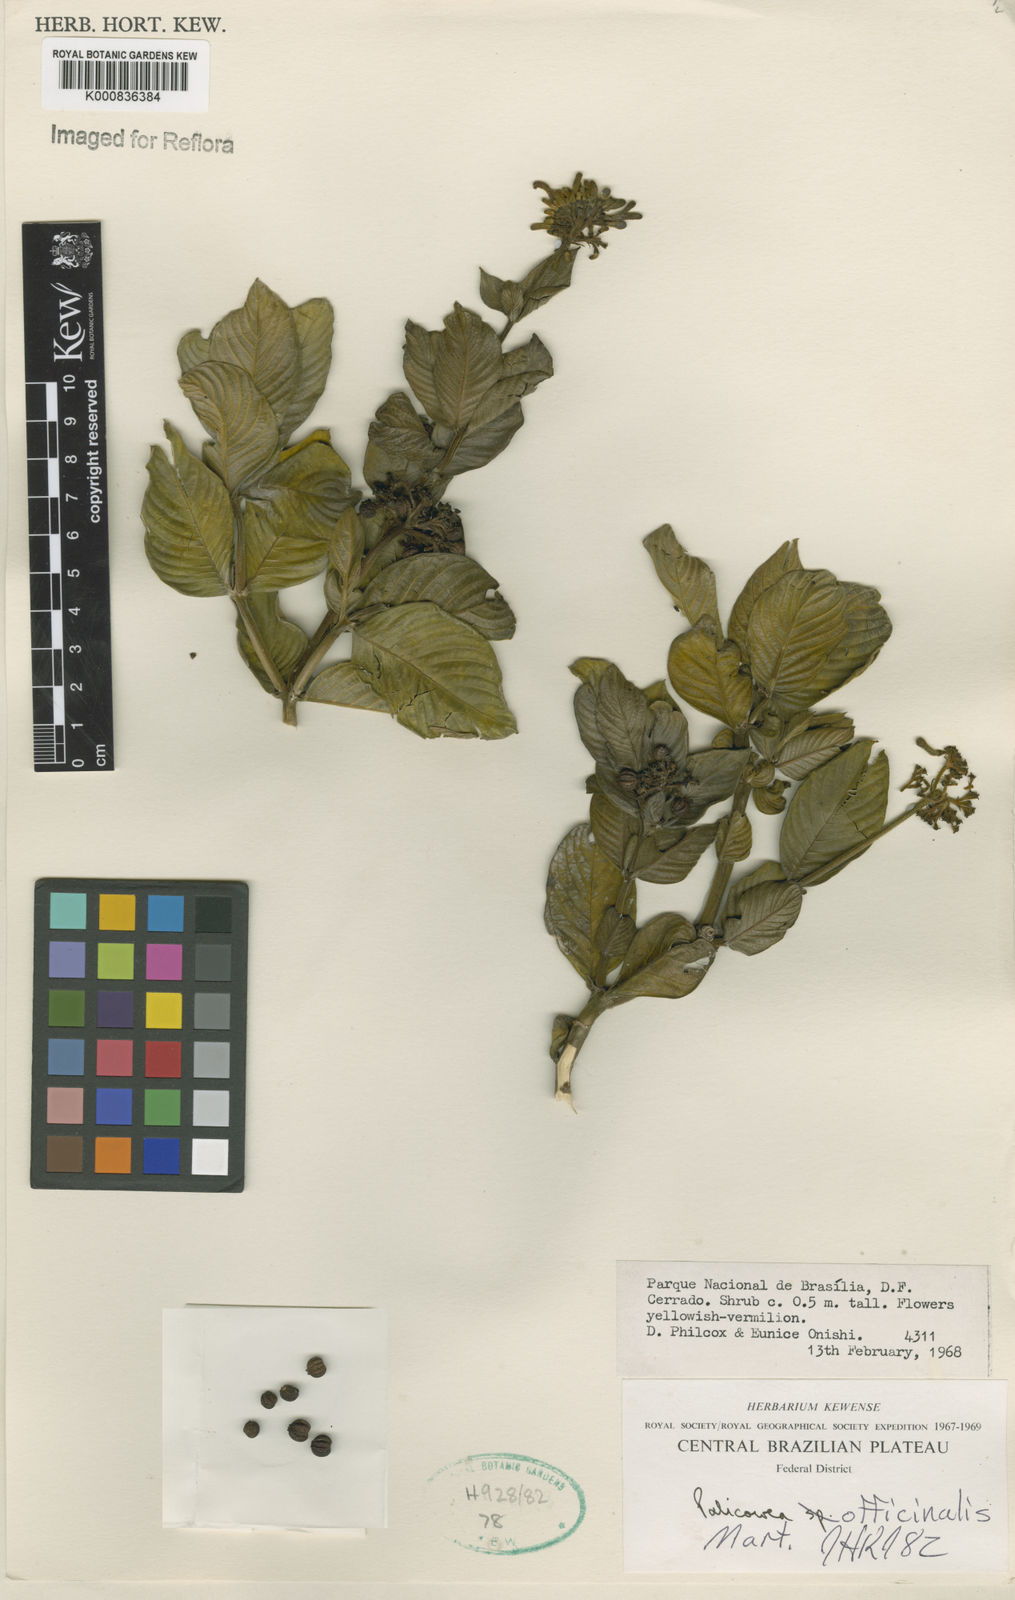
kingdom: Plantae
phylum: Tracheophyta
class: Magnoliopsida
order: Gentianales
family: Rubiaceae
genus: Palicourea
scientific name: Palicourea officinalis
